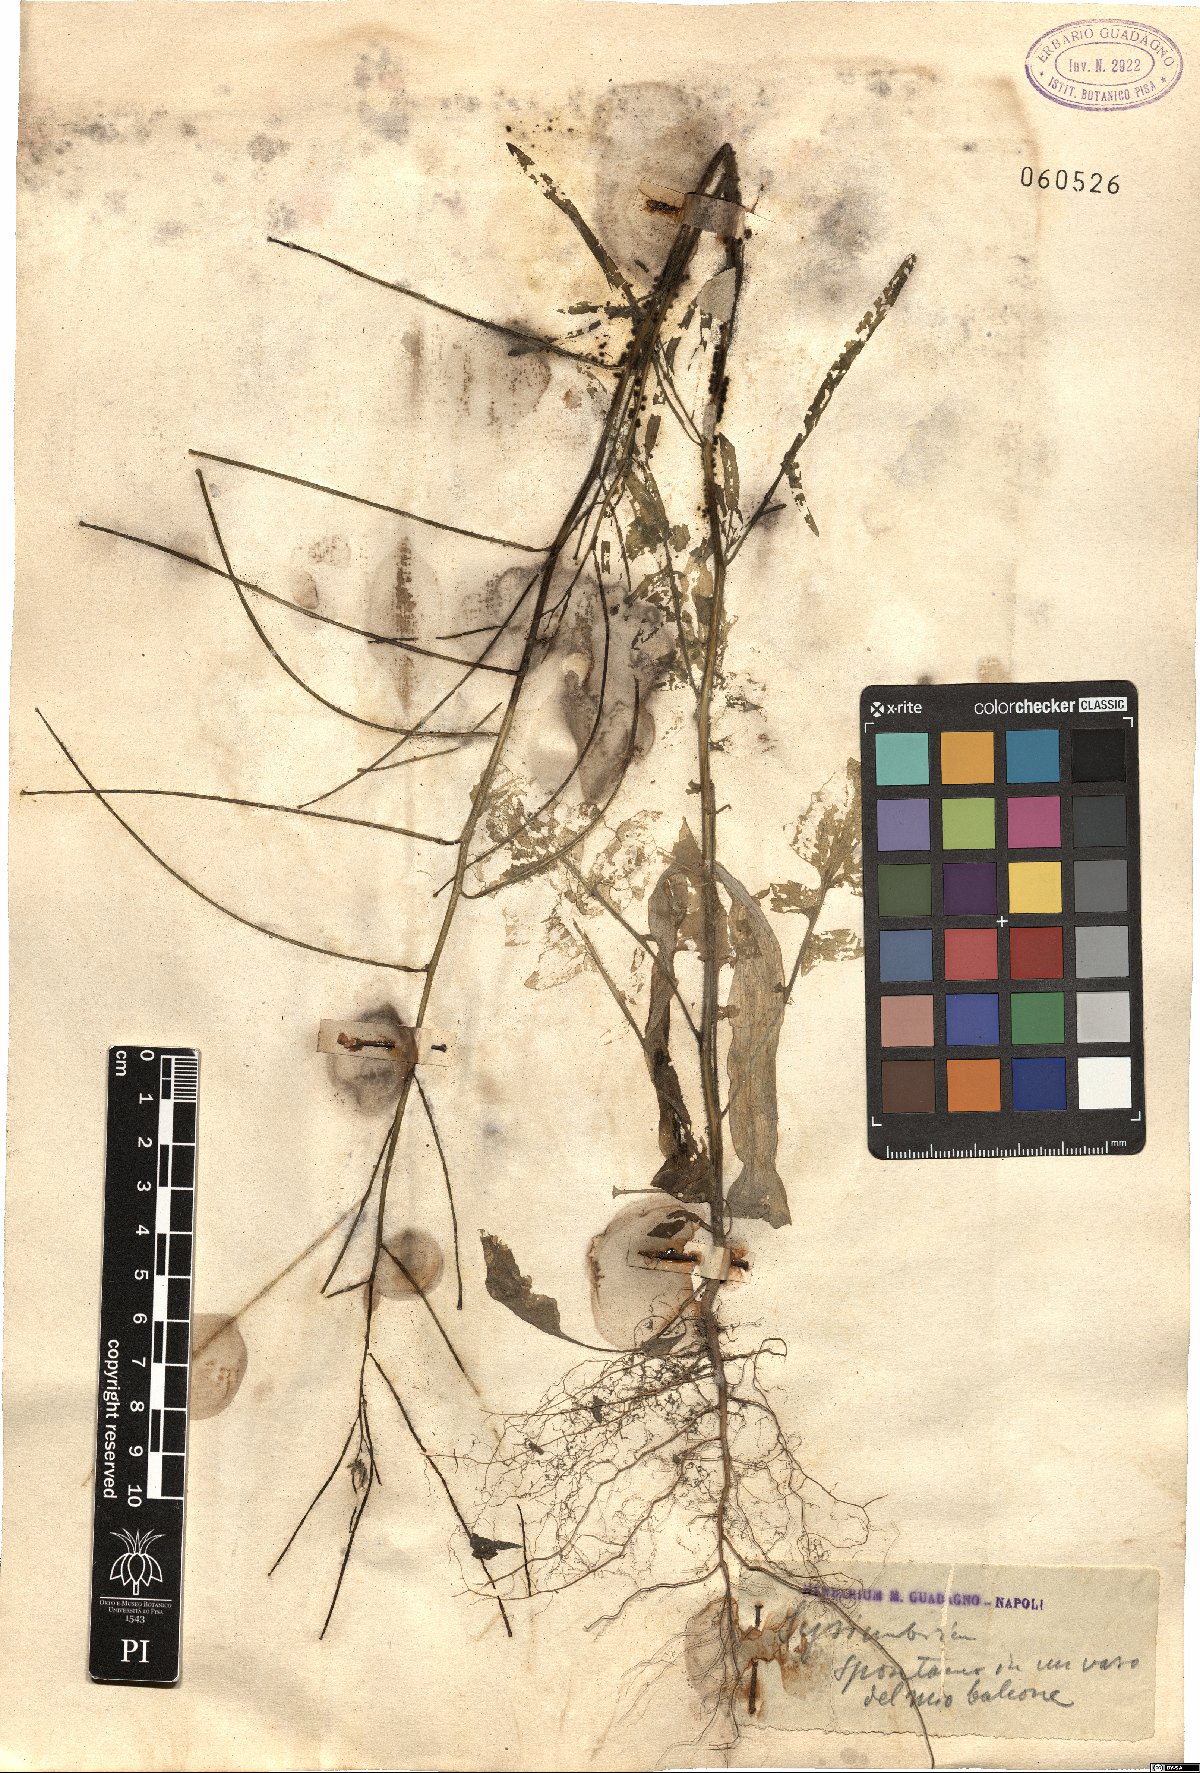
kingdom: Plantae
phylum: Tracheophyta
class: Magnoliopsida
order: Brassicales
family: Brassicaceae
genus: Sisymbrium
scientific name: Sisymbrium
